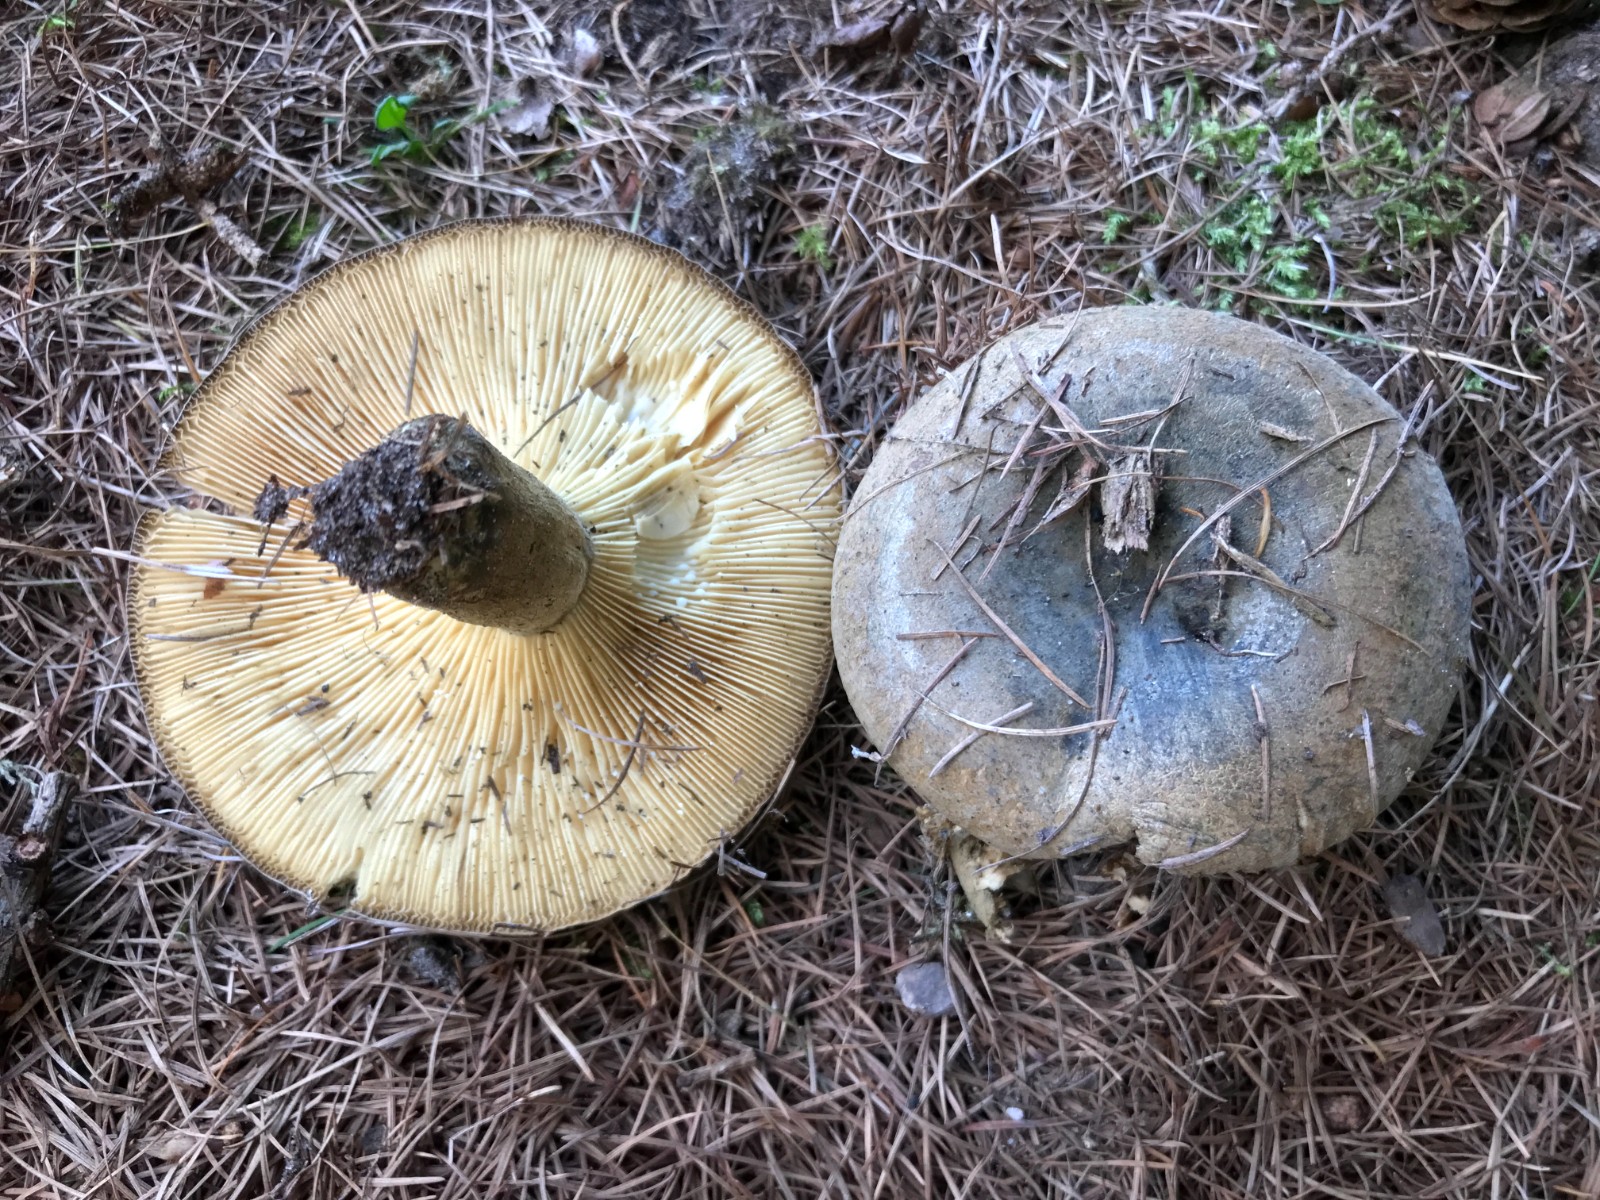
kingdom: Fungi
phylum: Basidiomycota
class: Agaricomycetes
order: Russulales
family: Russulaceae
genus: Lactarius
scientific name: Lactarius necator
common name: manddraber-mælkehat
